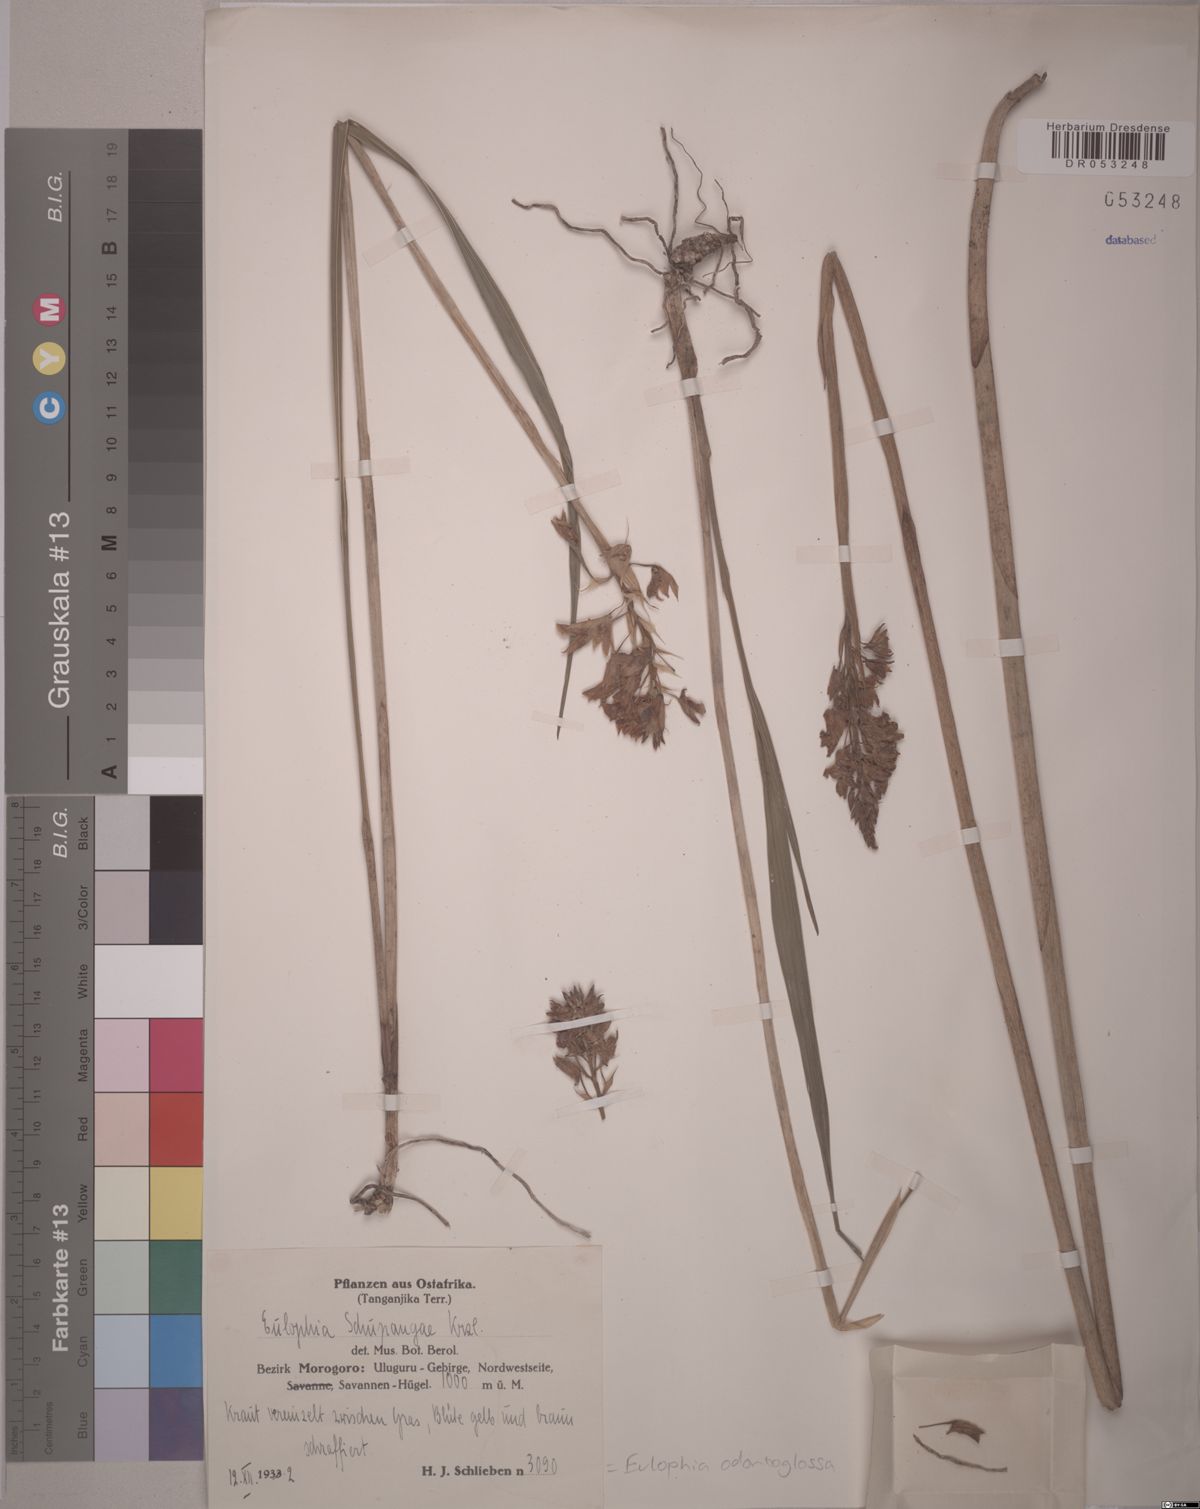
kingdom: Plantae
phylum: Tracheophyta
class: Liliopsida
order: Asparagales
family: Orchidaceae
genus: Eulophia
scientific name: Eulophia odontoglossa
